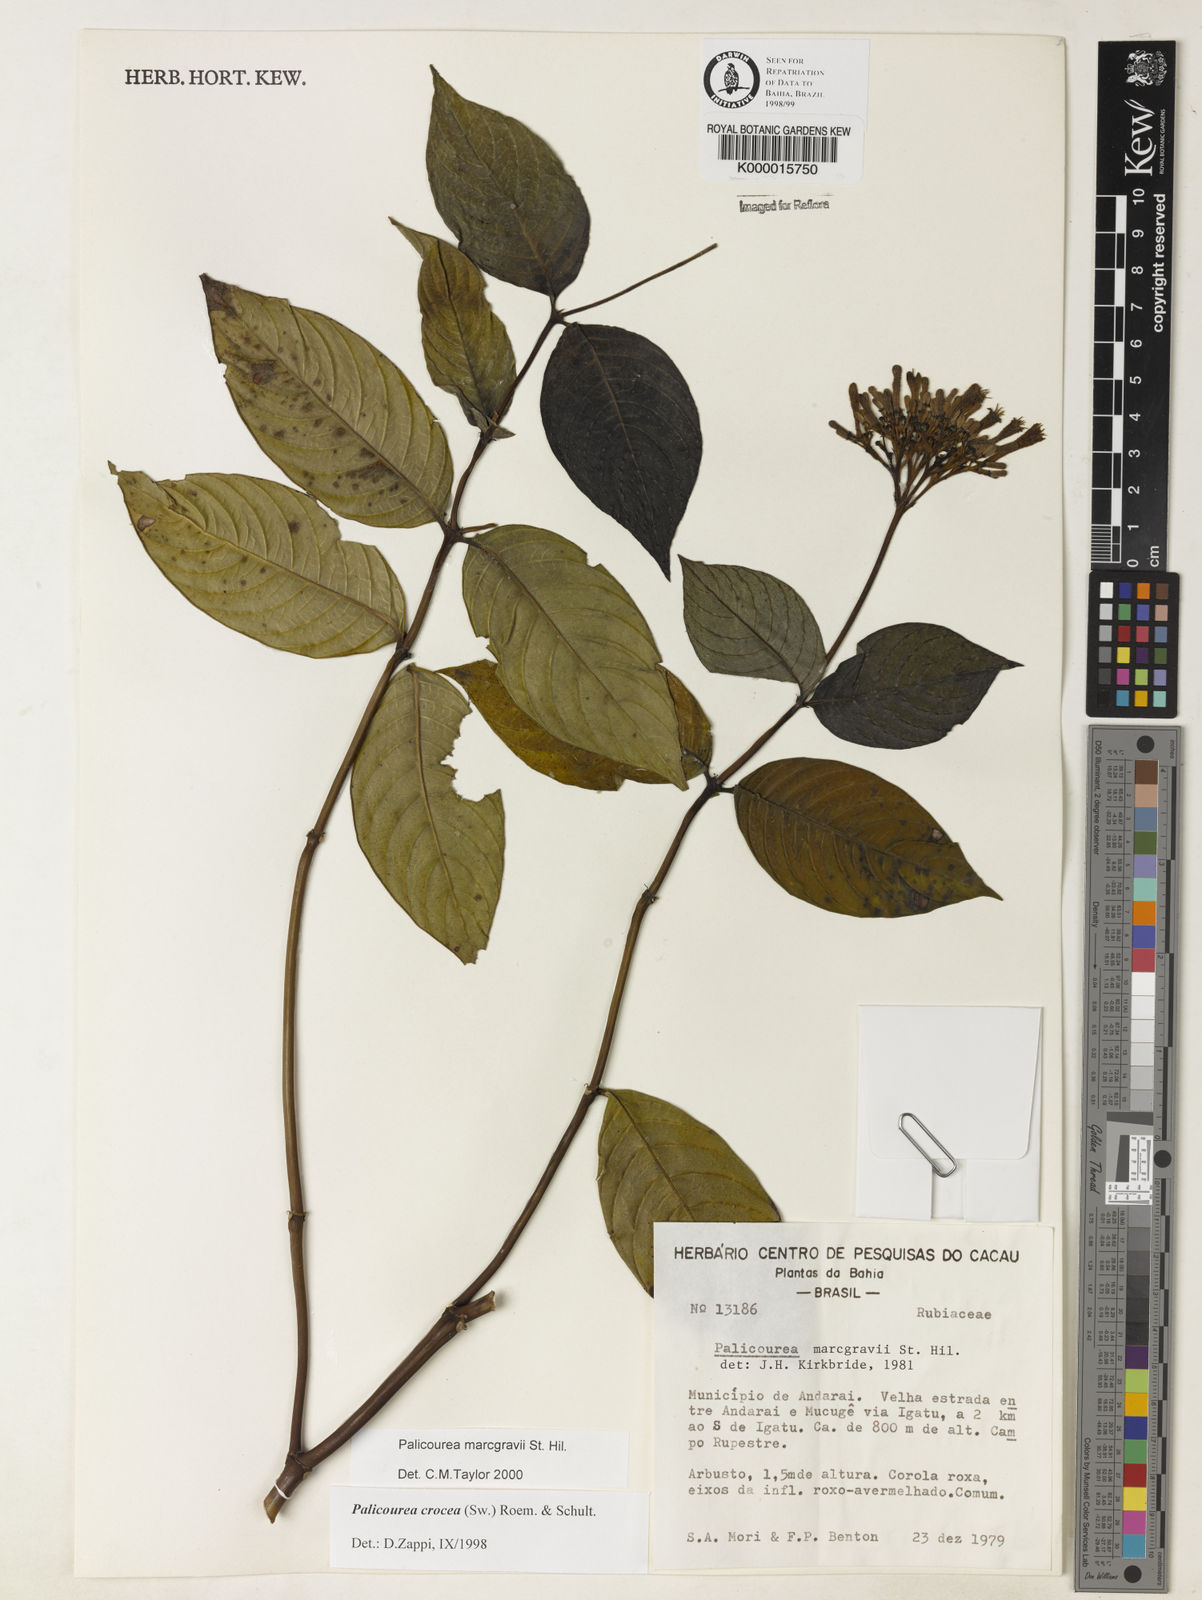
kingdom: Plantae
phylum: Tracheophyta
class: Magnoliopsida
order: Gentianales
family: Rubiaceae
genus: Palicourea
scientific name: Palicourea marcgravii
